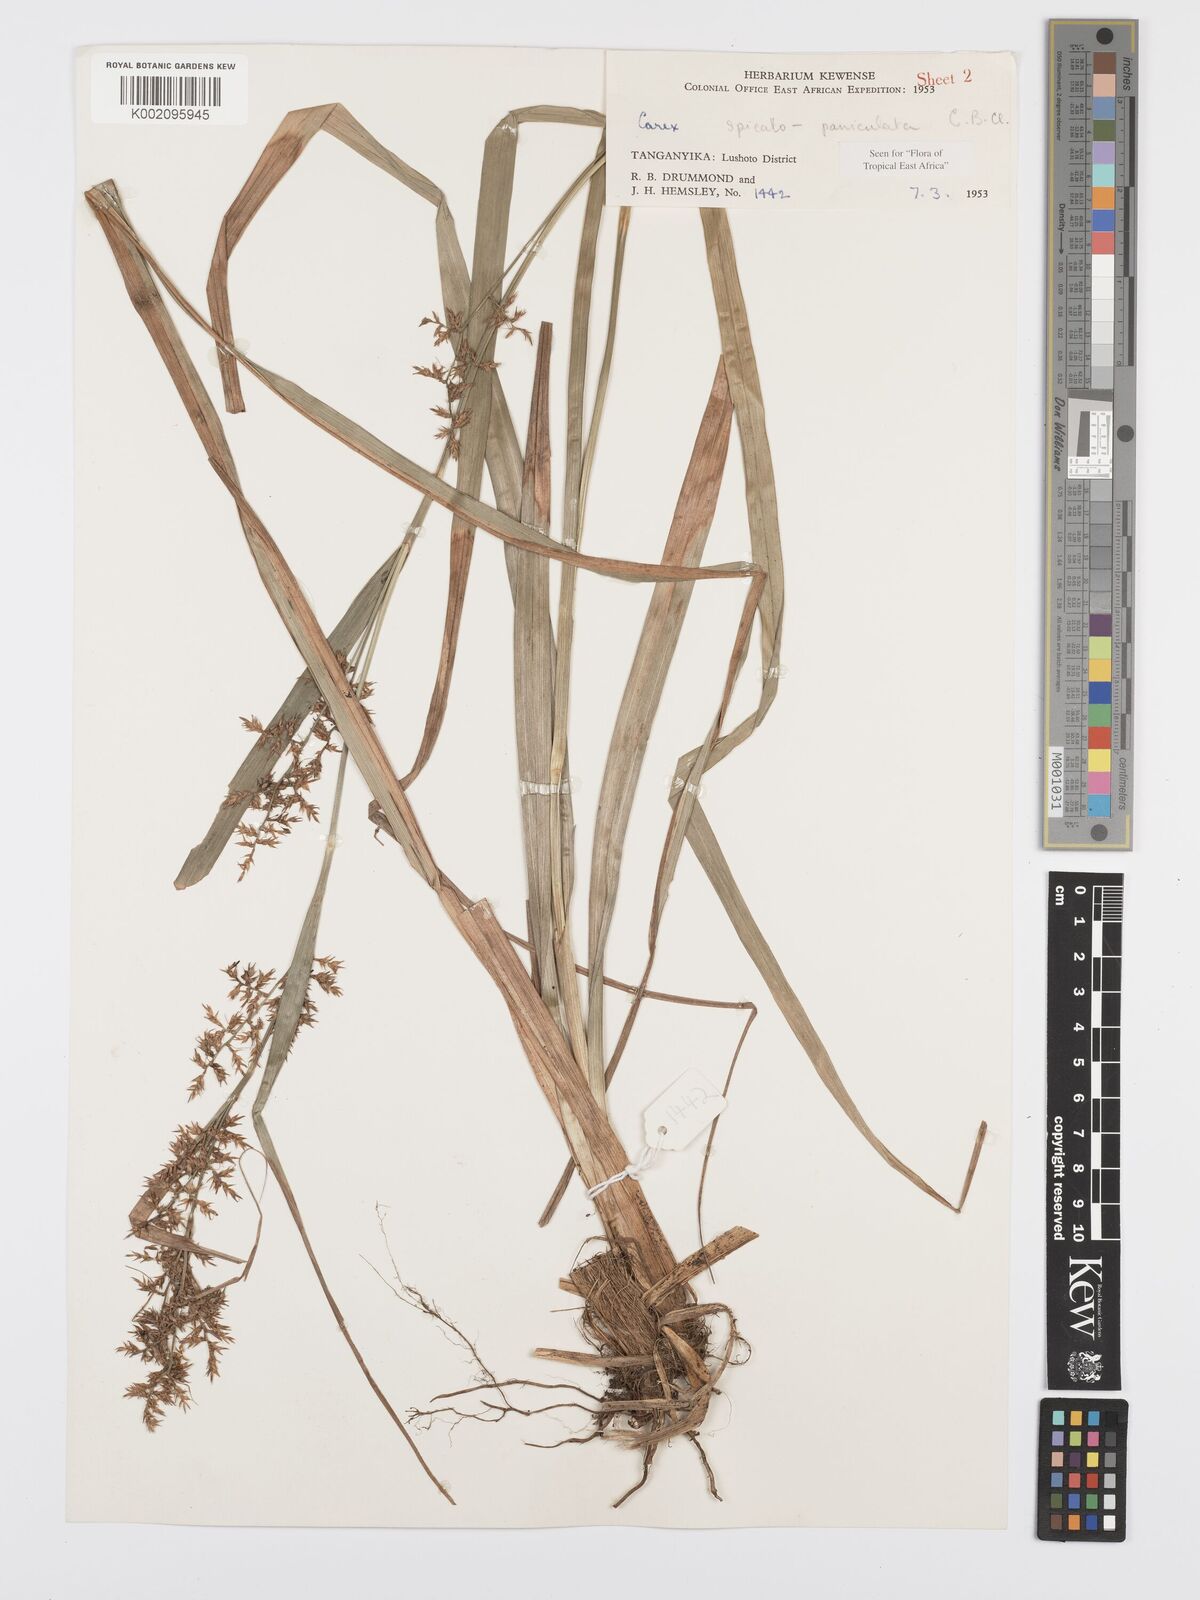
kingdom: Plantae
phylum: Tracheophyta
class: Liliopsida
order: Poales
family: Cyperaceae
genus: Carex
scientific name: Carex spicatopaniculata
